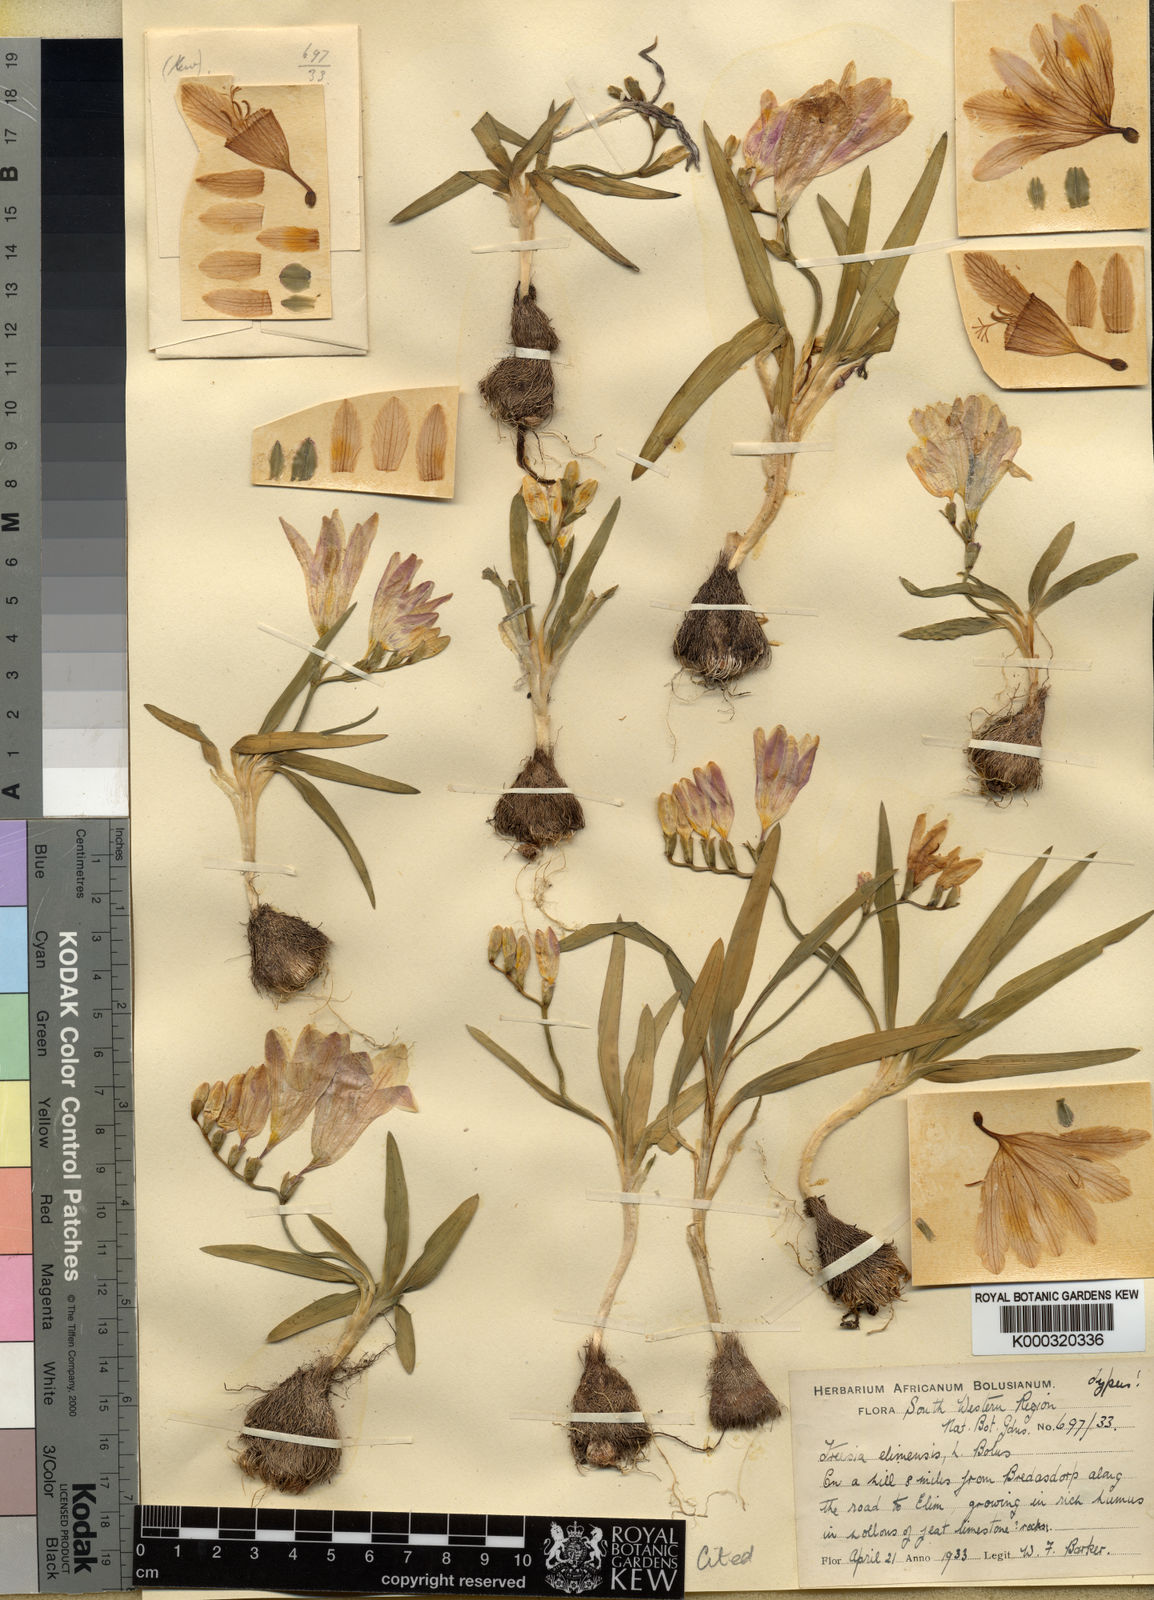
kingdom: Plantae
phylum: Tracheophyta
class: Liliopsida
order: Asparagales
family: Iridaceae
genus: Freesia
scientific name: Freesia caryophyllacea
